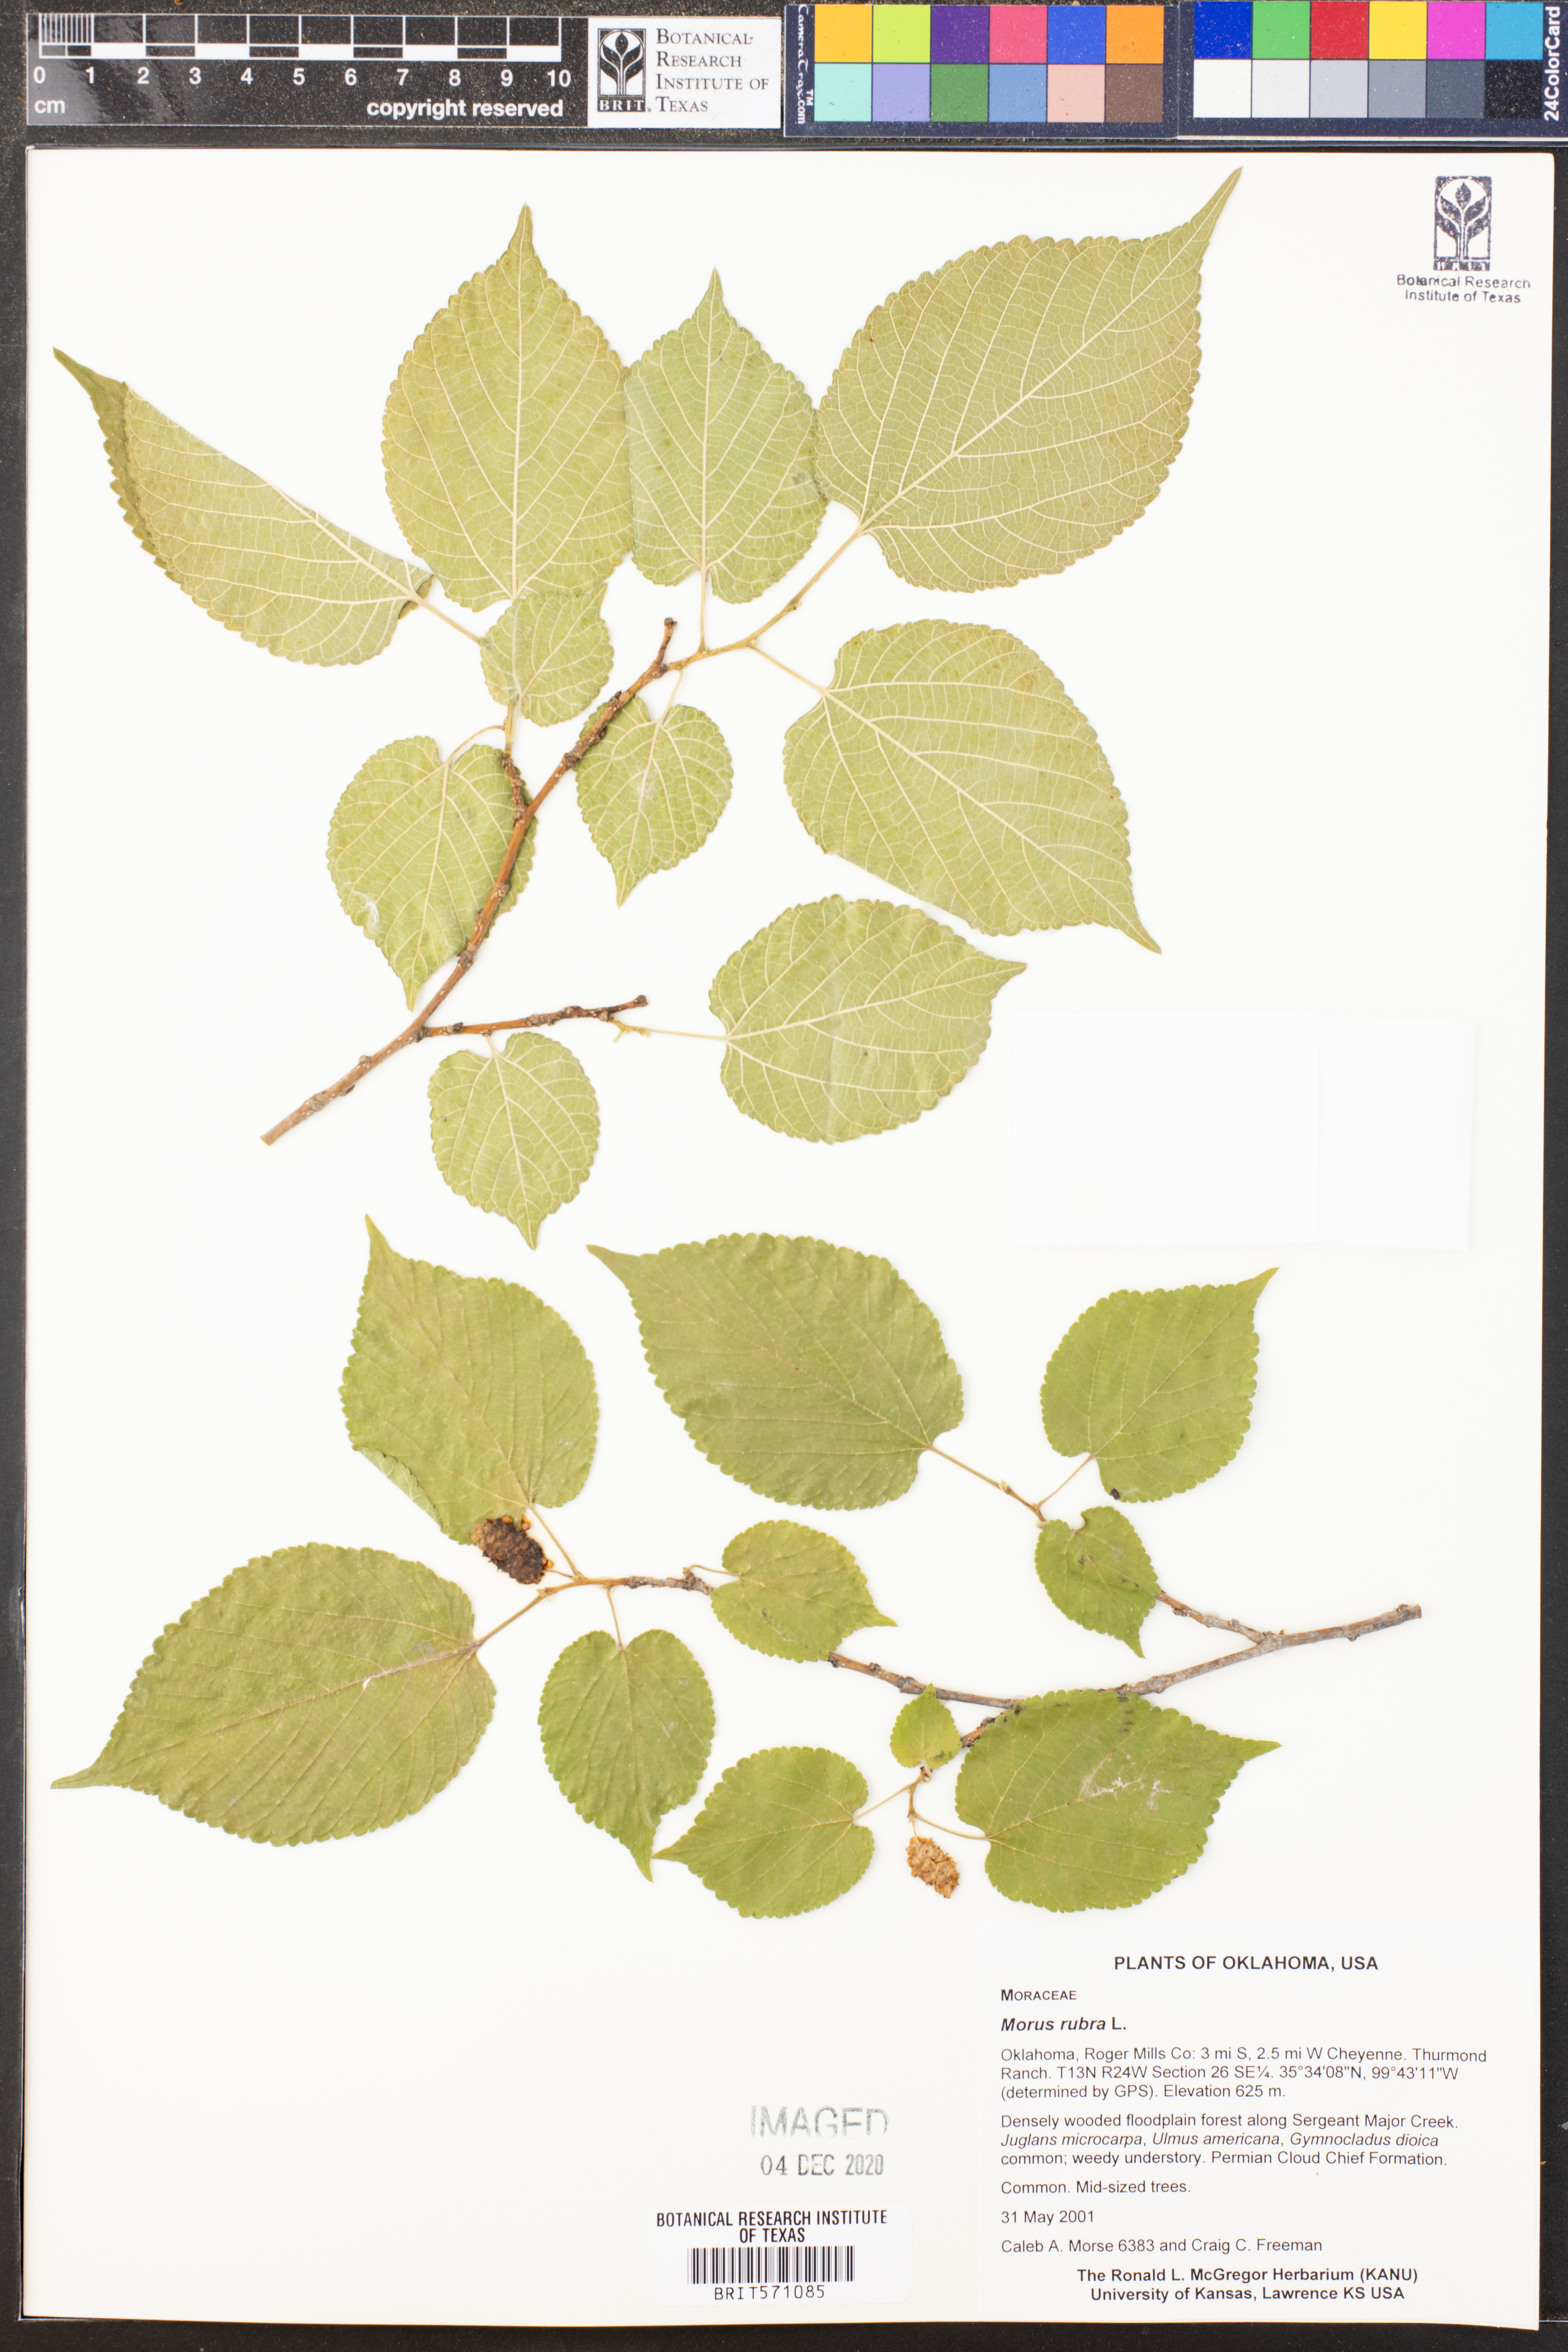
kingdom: Plantae
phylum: Tracheophyta
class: Magnoliopsida
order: Rosales
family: Moraceae
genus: Morus
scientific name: Morus rubra
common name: Red mulberry
